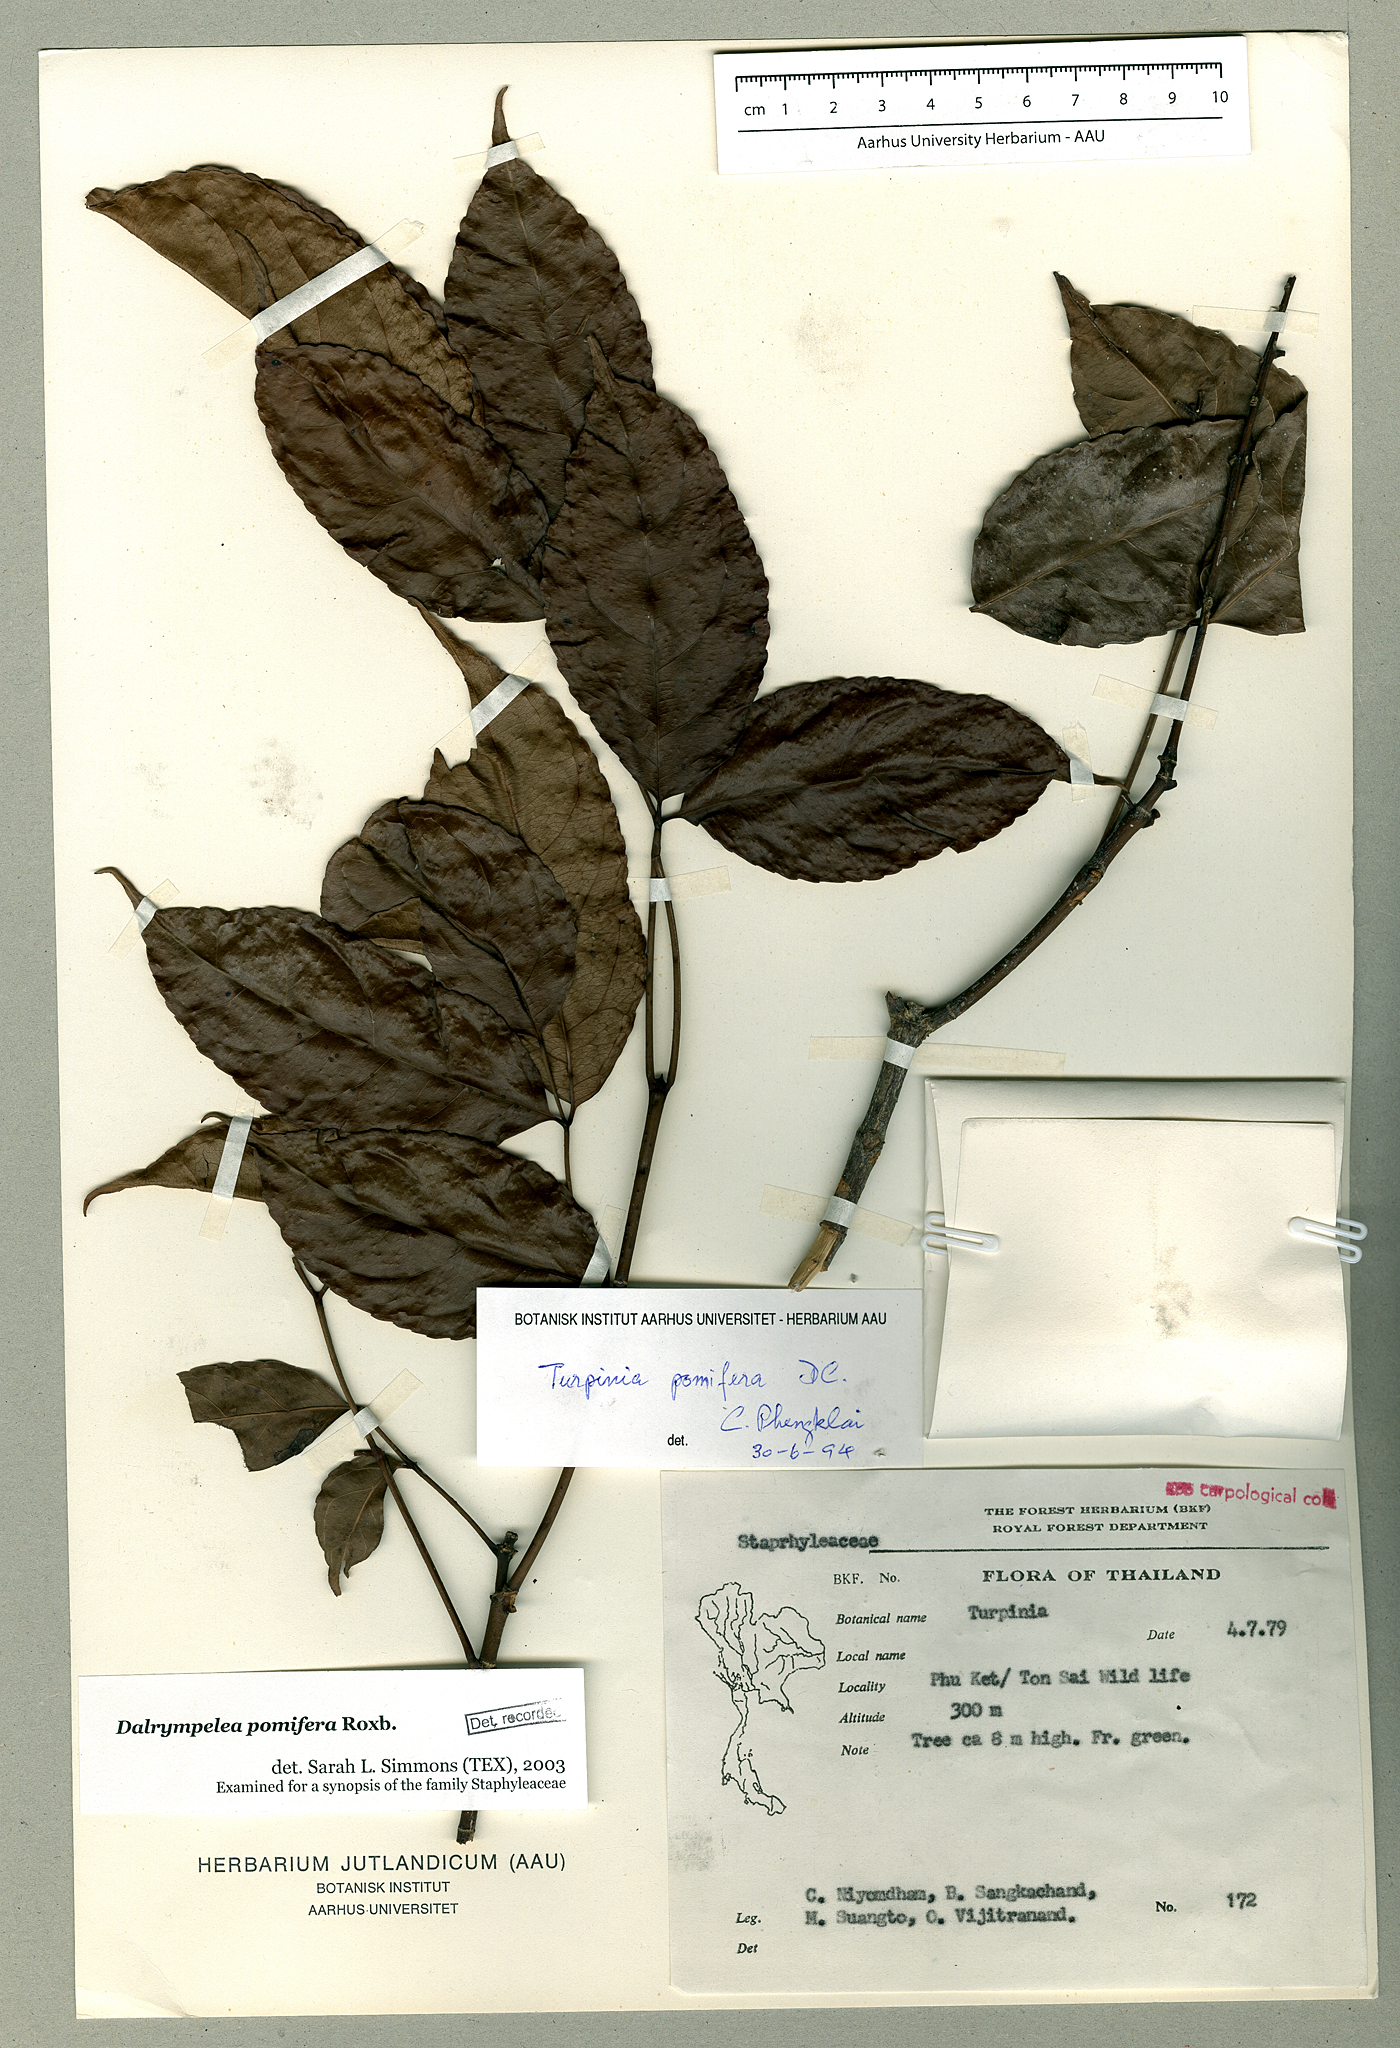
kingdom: Plantae
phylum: Tracheophyta
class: Magnoliopsida
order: Crossosomatales
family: Staphyleaceae
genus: Dalrympelea
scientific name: Dalrympelea sphaerocarpa
